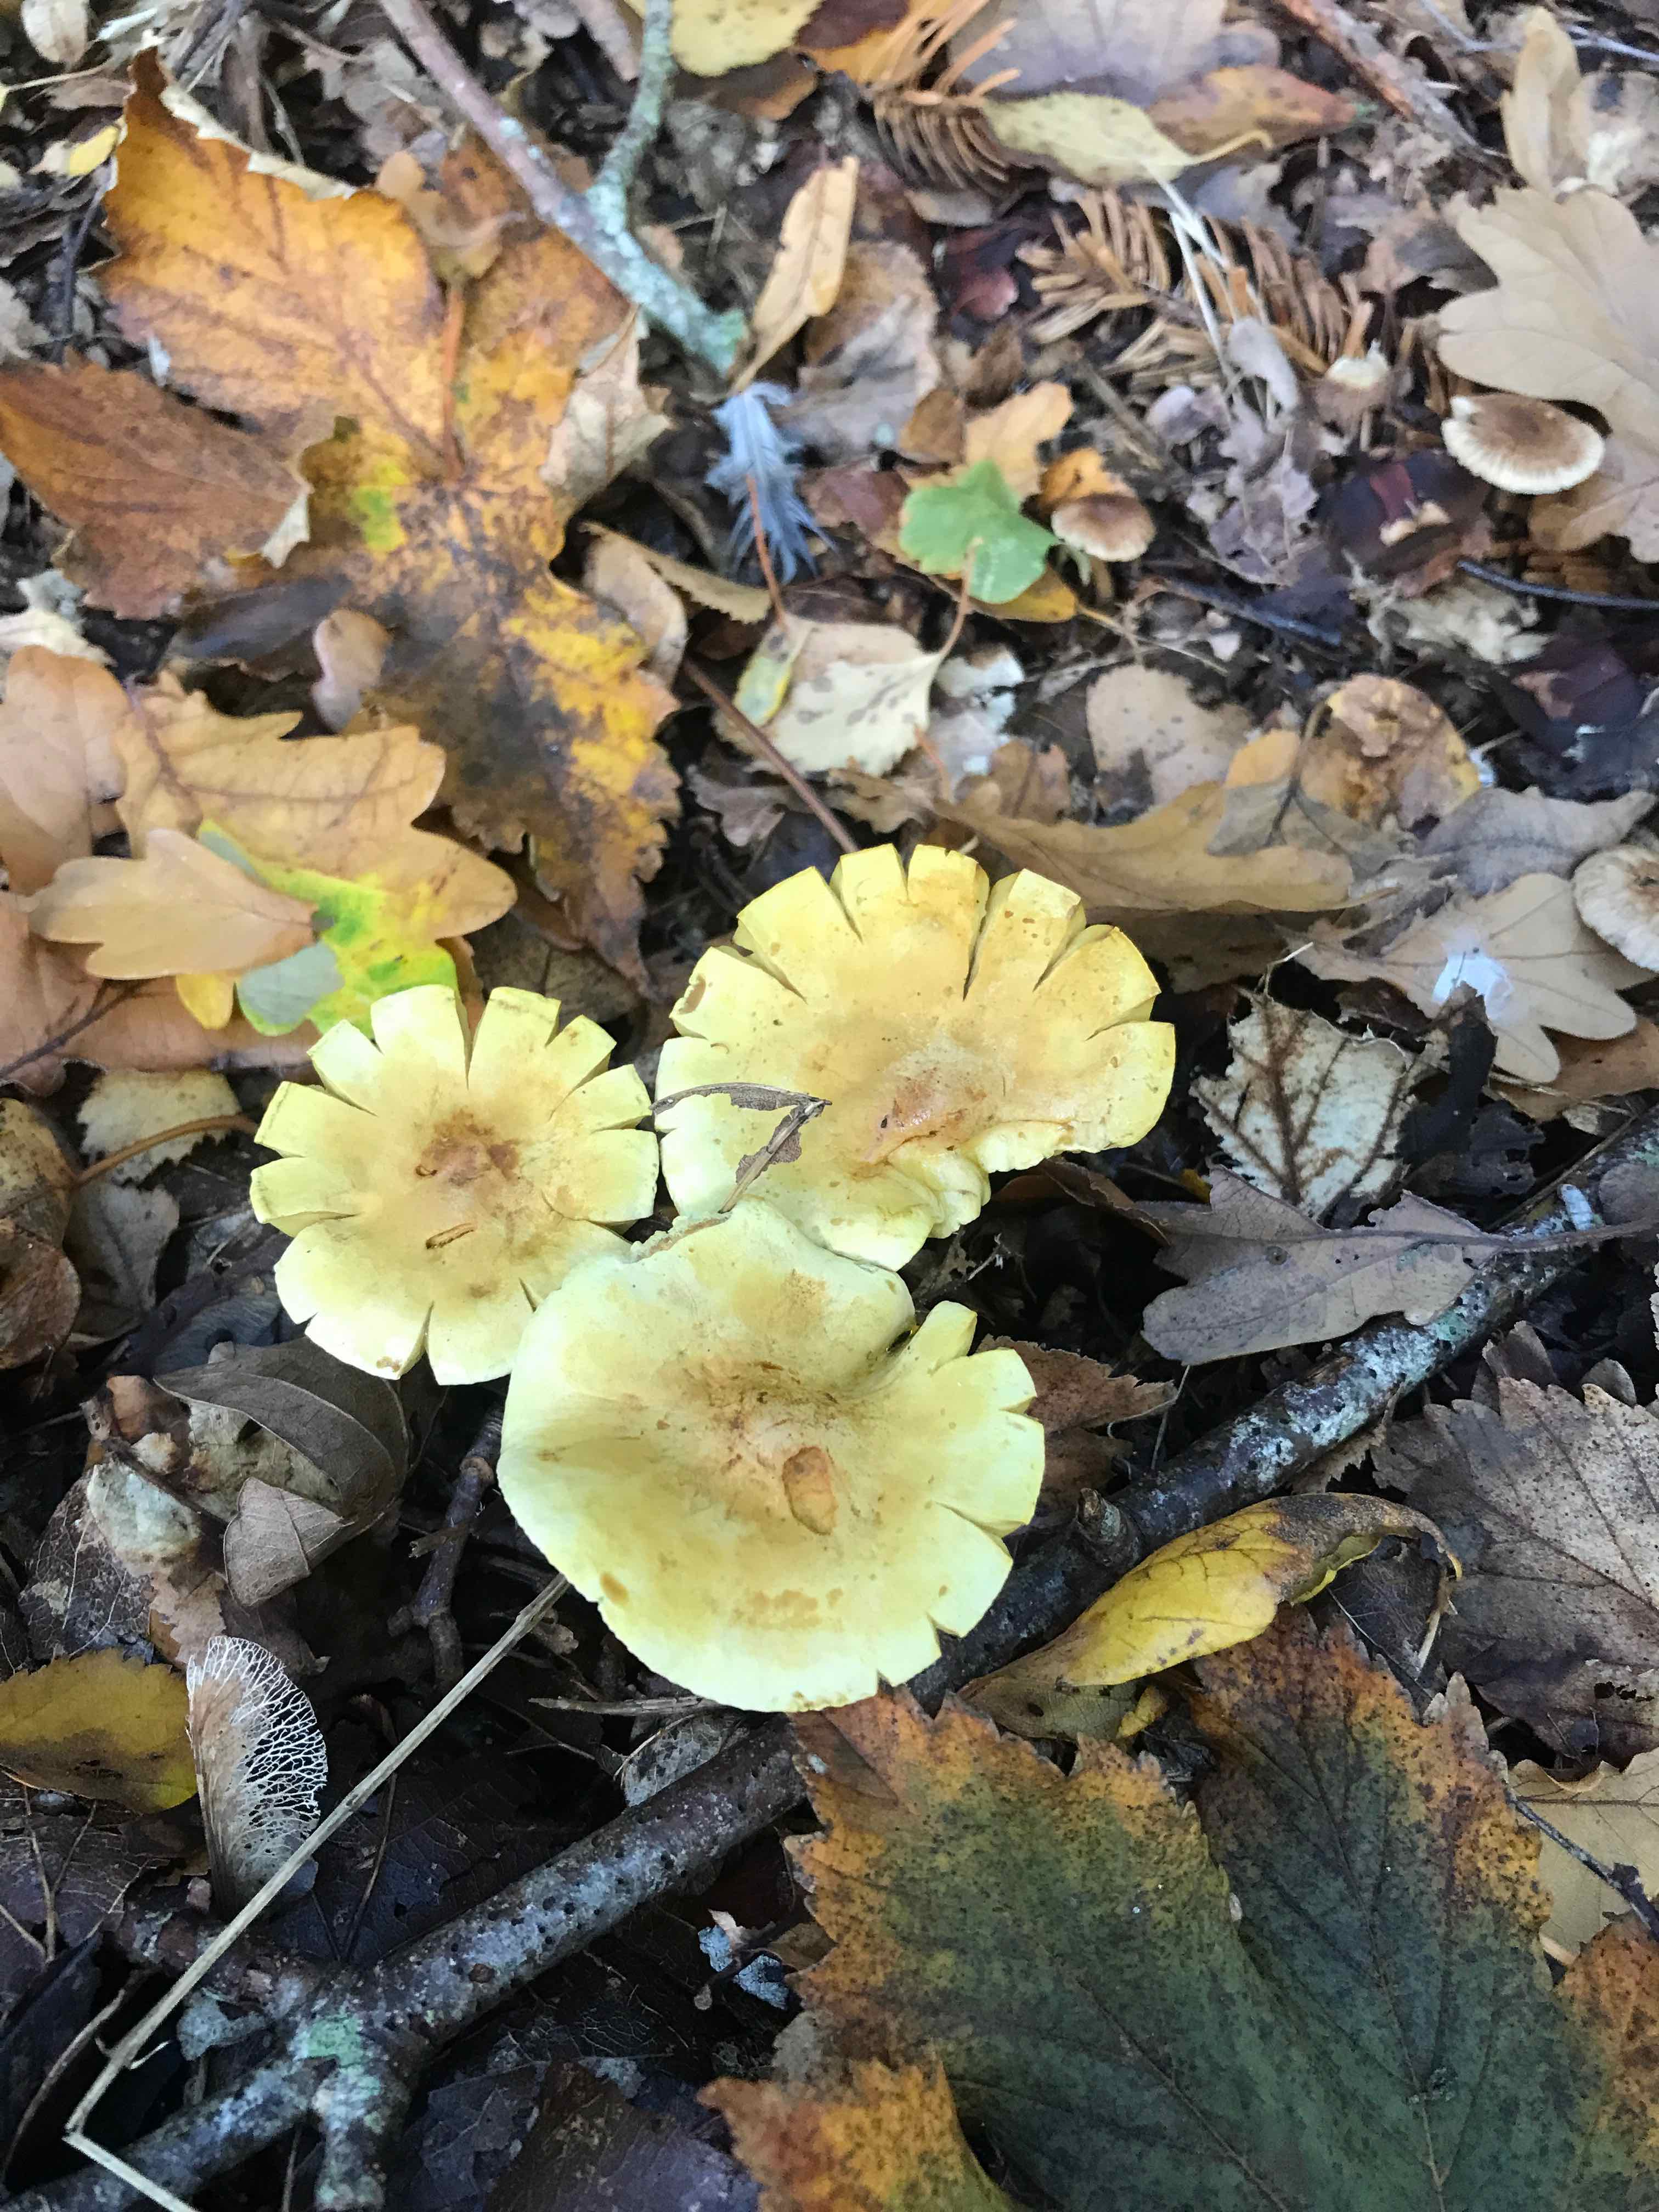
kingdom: Fungi
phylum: Basidiomycota
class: Agaricomycetes
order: Agaricales
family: Tricholomataceae
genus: Tricholoma
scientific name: Tricholoma sulphureum
